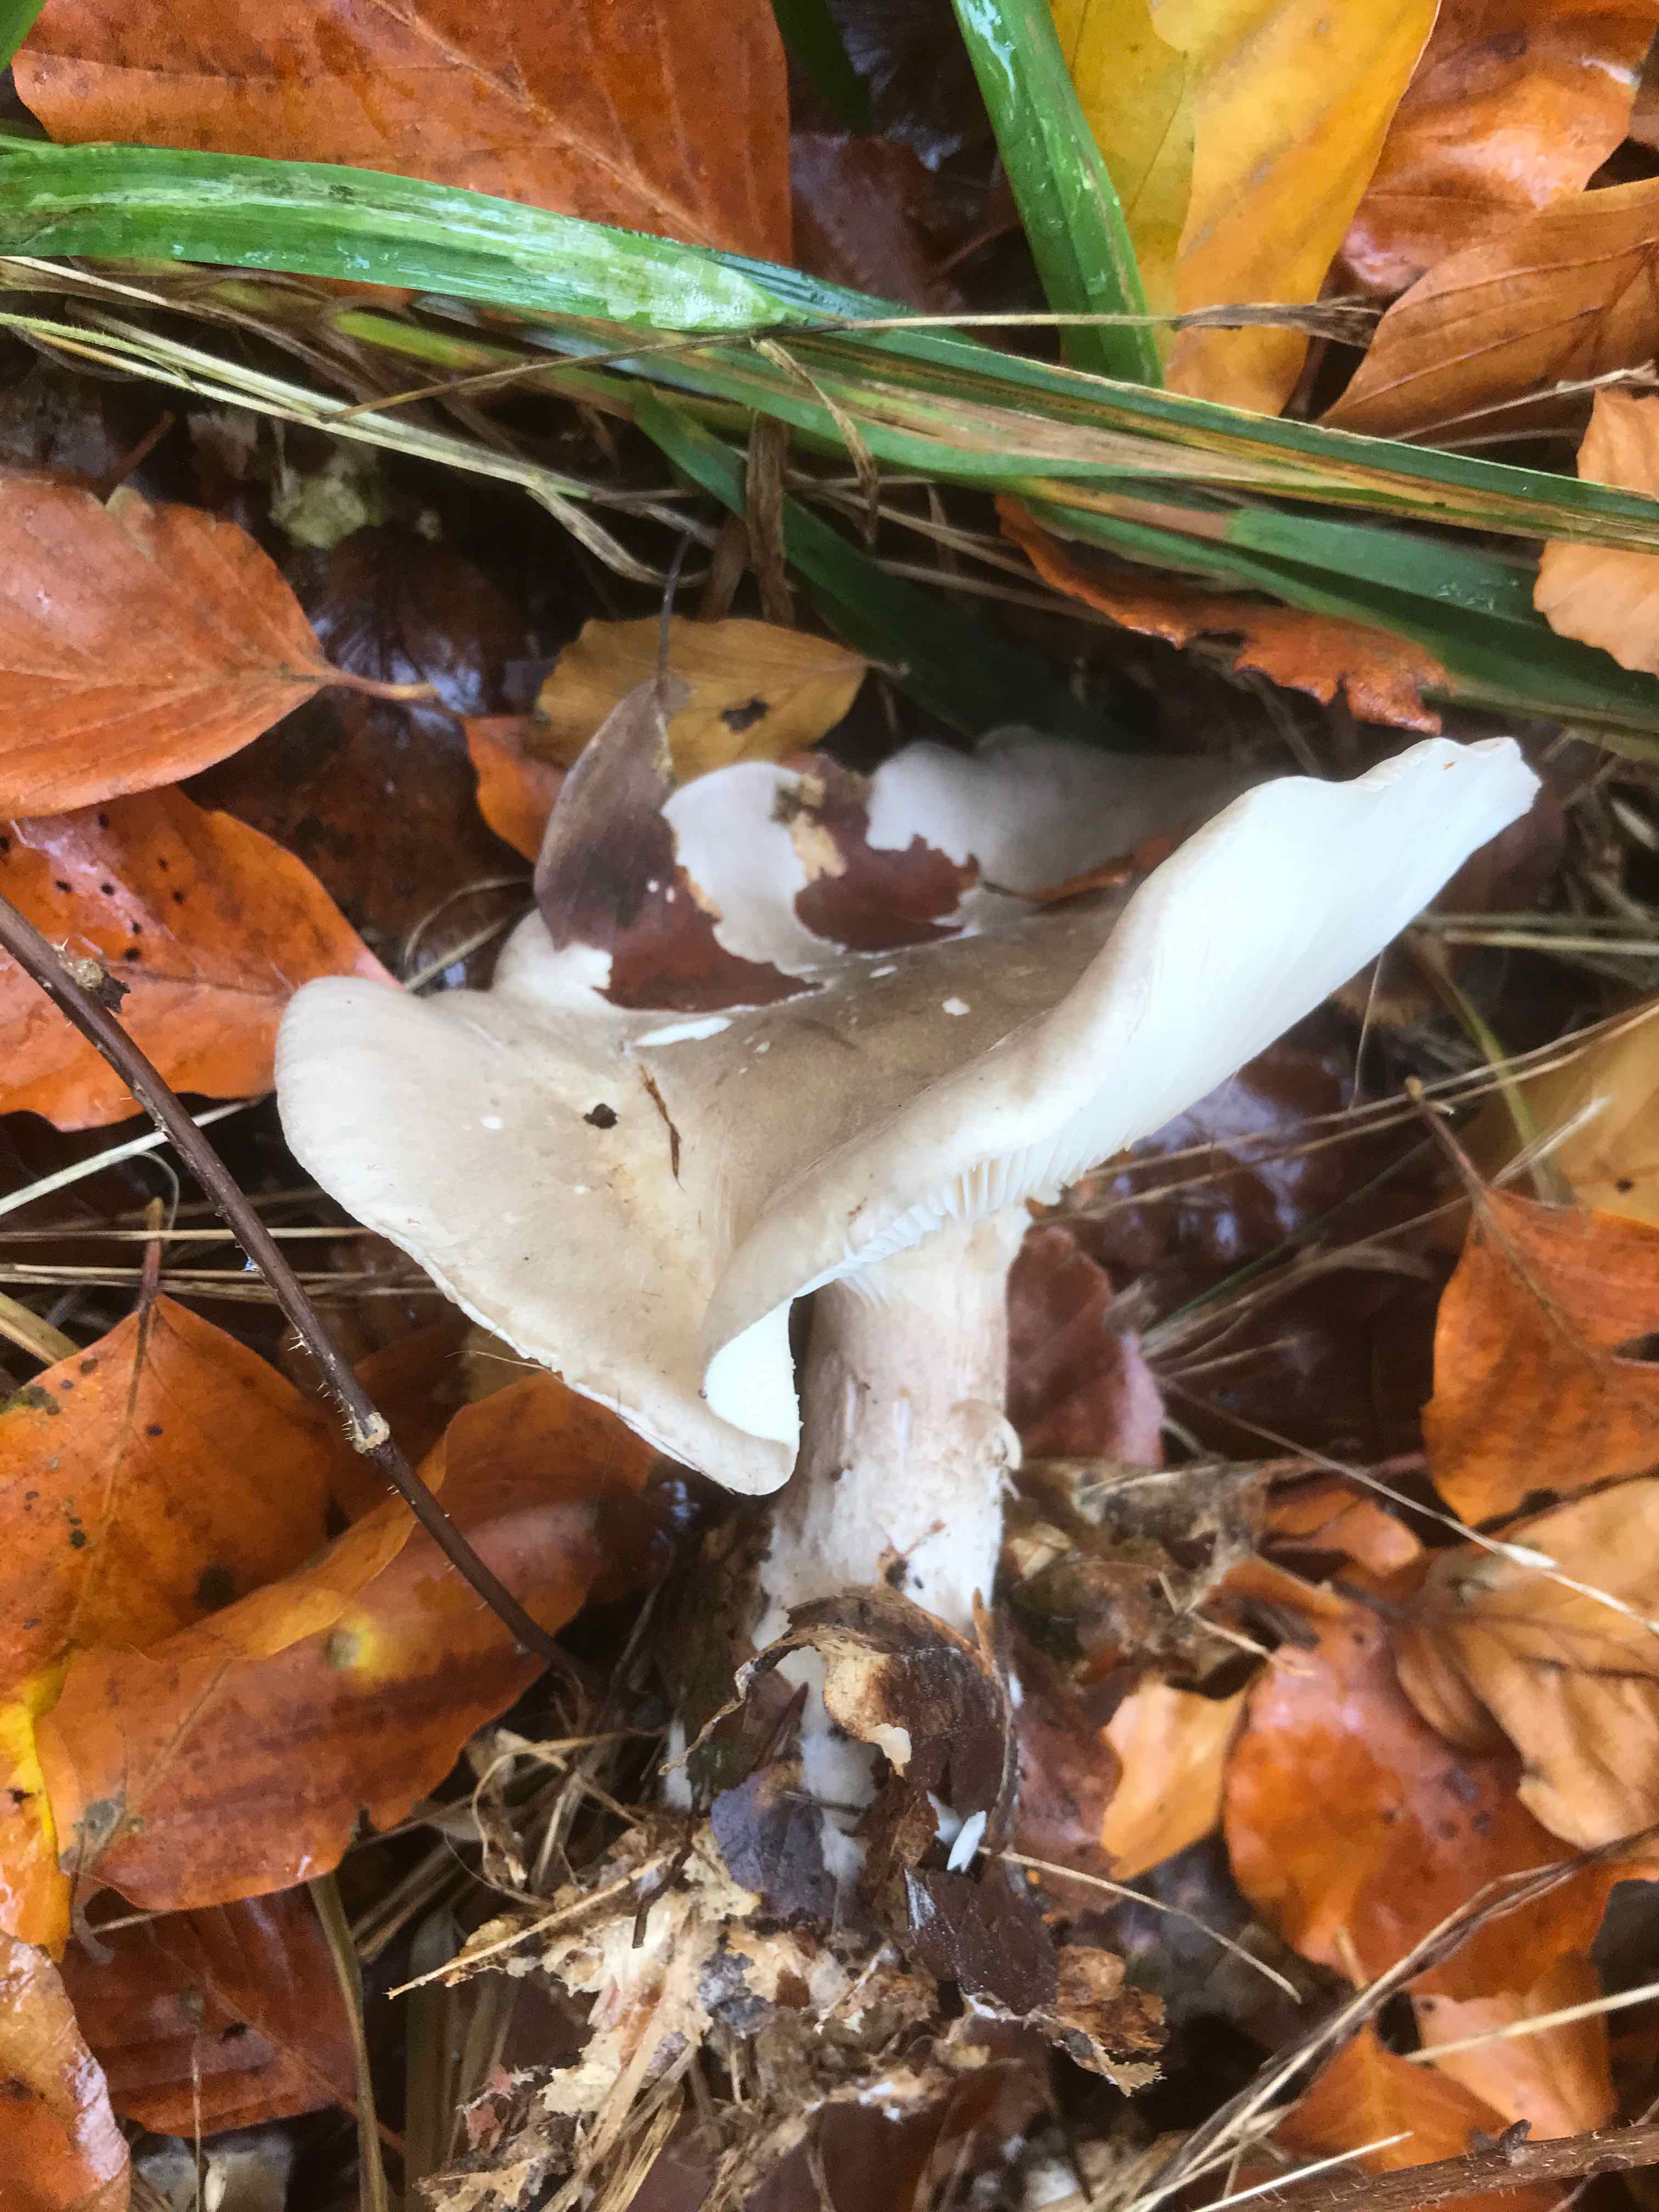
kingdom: Fungi
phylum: Basidiomycota
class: Agaricomycetes
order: Agaricales
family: Tricholomataceae
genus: Clitocybe
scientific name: Clitocybe nebularis
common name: tåge-tragthat
